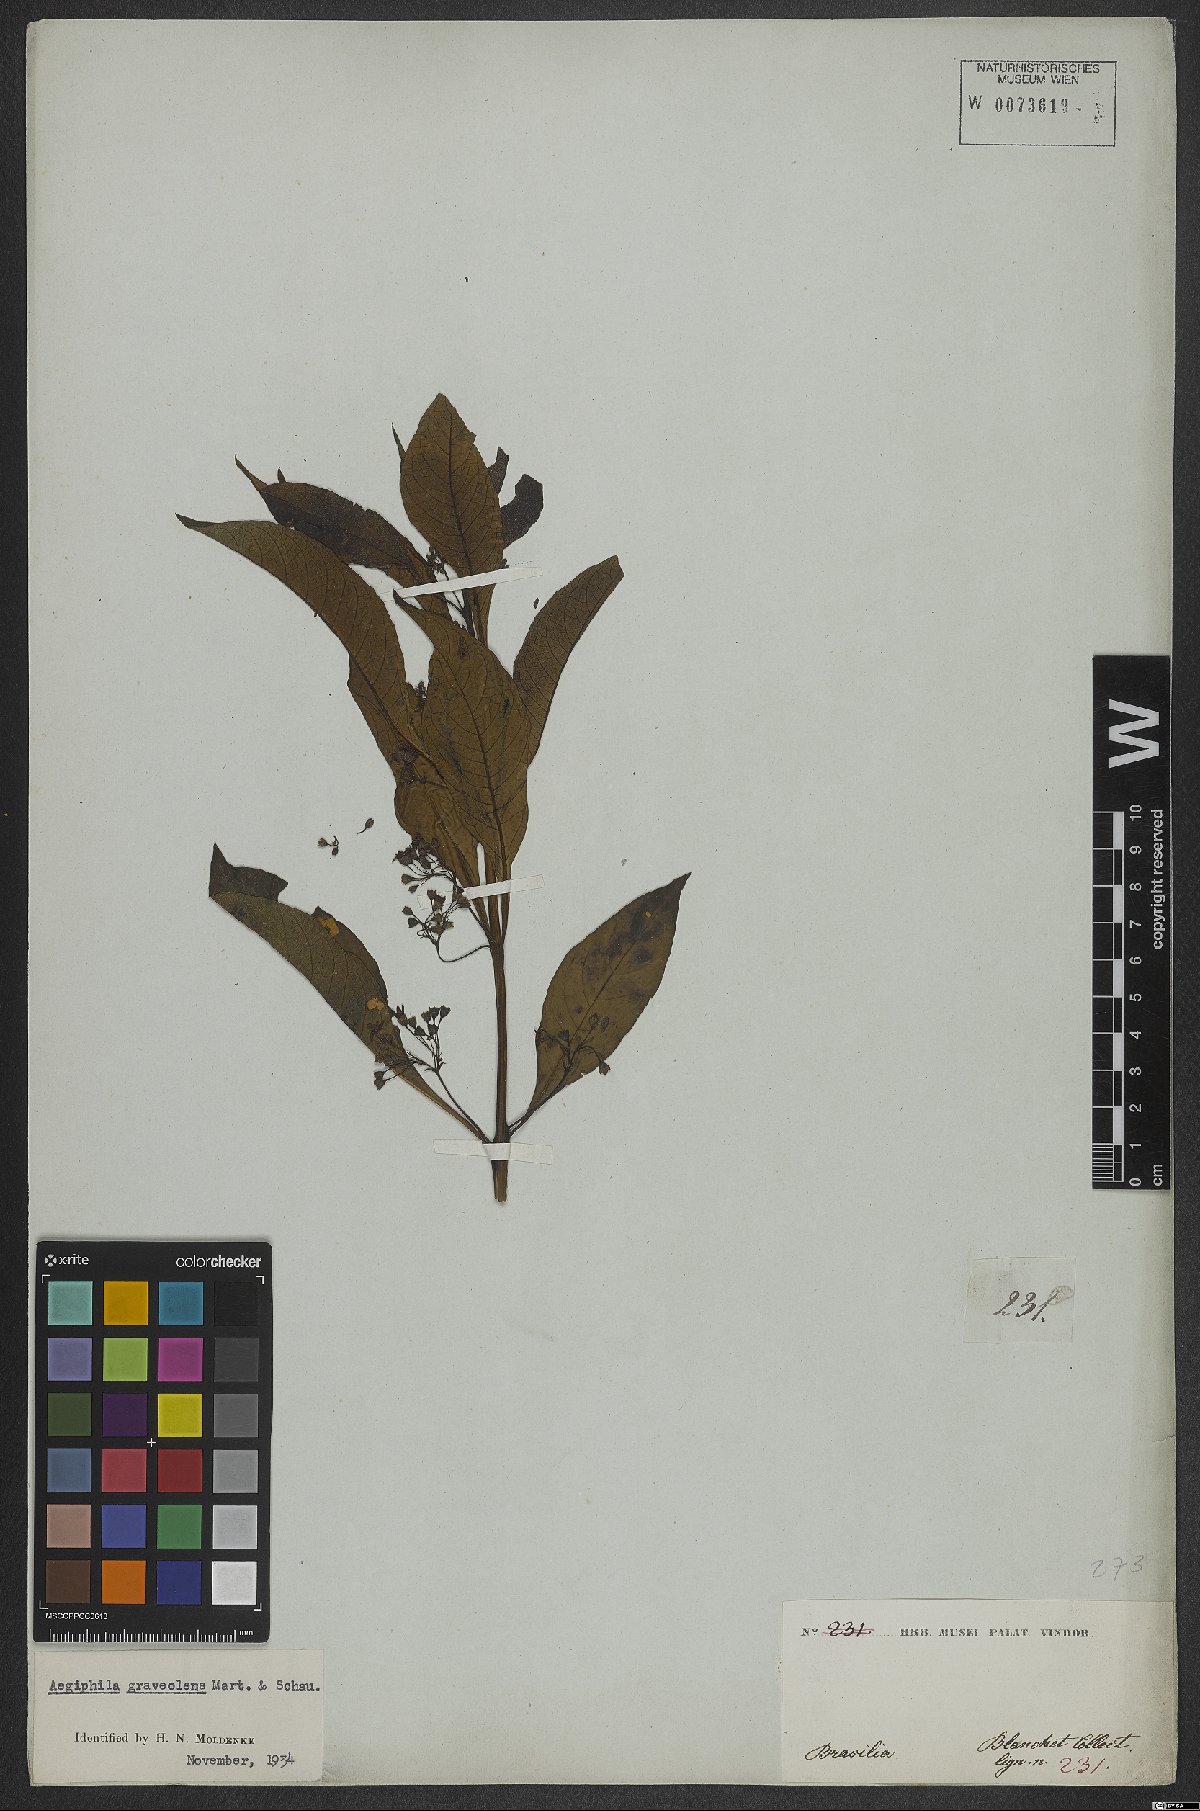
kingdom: Plantae
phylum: Tracheophyta
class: Magnoliopsida
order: Lamiales
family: Lamiaceae
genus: Aegiphila
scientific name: Aegiphila graveolens
